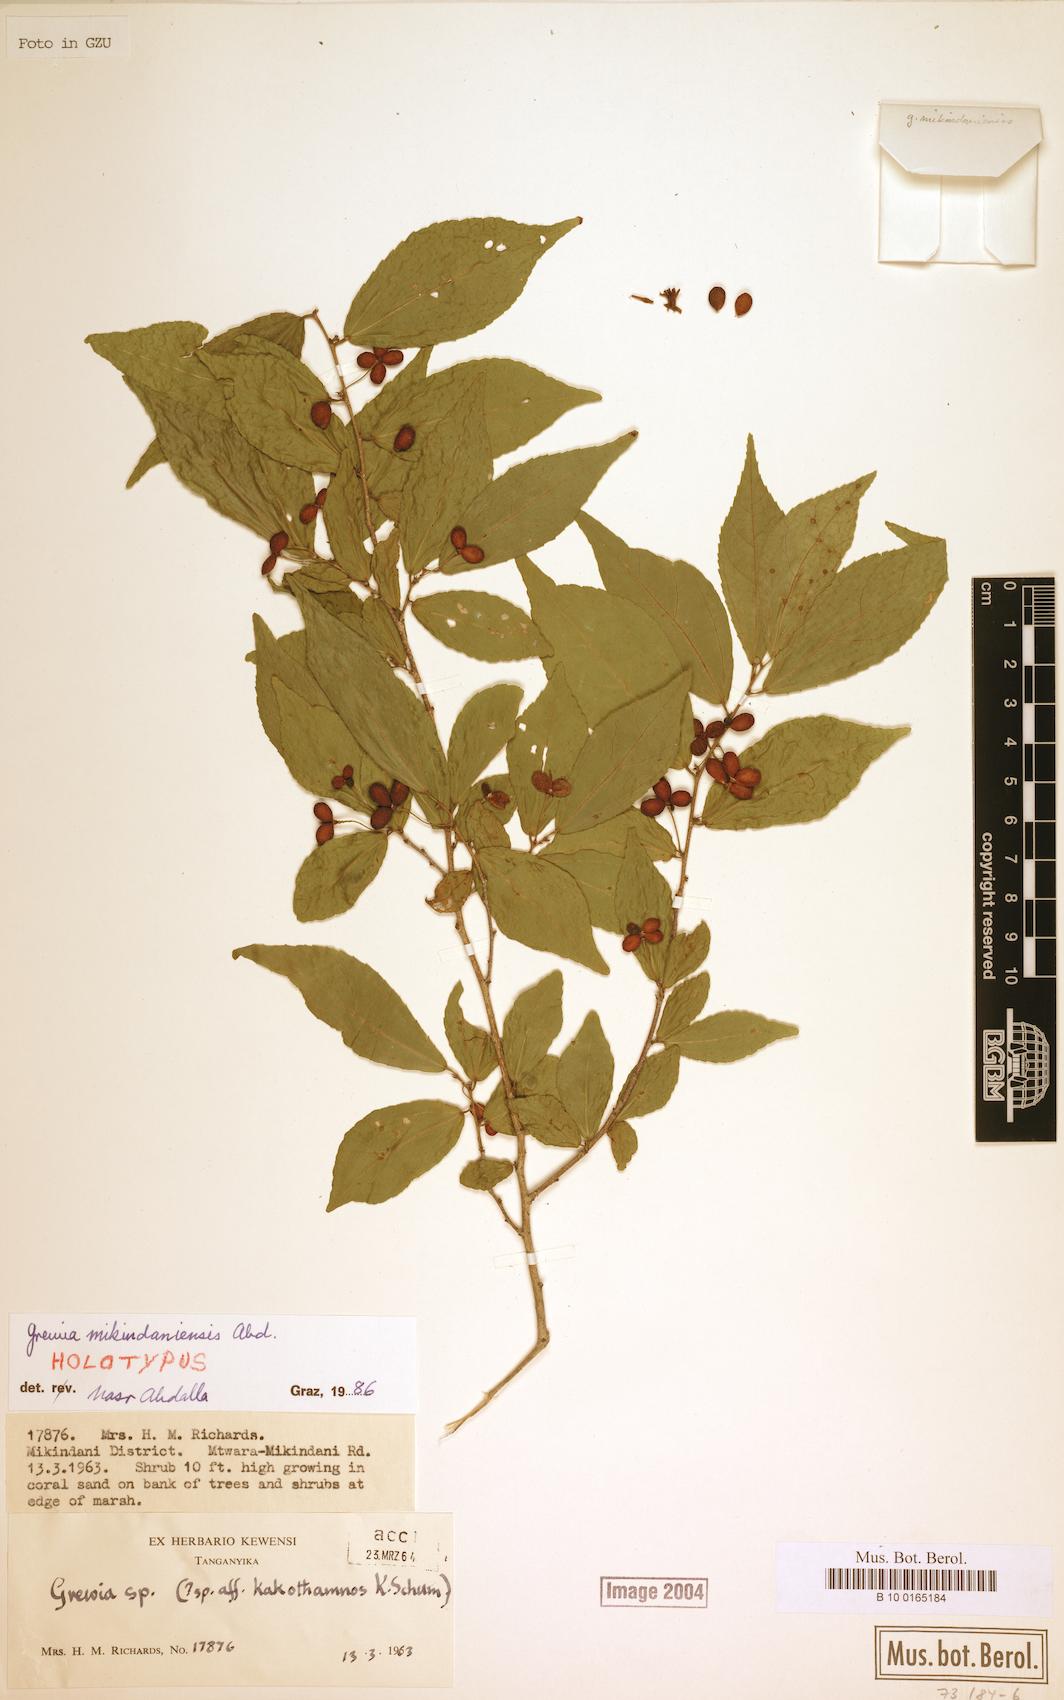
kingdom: Plantae
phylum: Tracheophyta
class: Magnoliopsida
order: Malvales
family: Malvaceae
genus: Grewia
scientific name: Grewia
